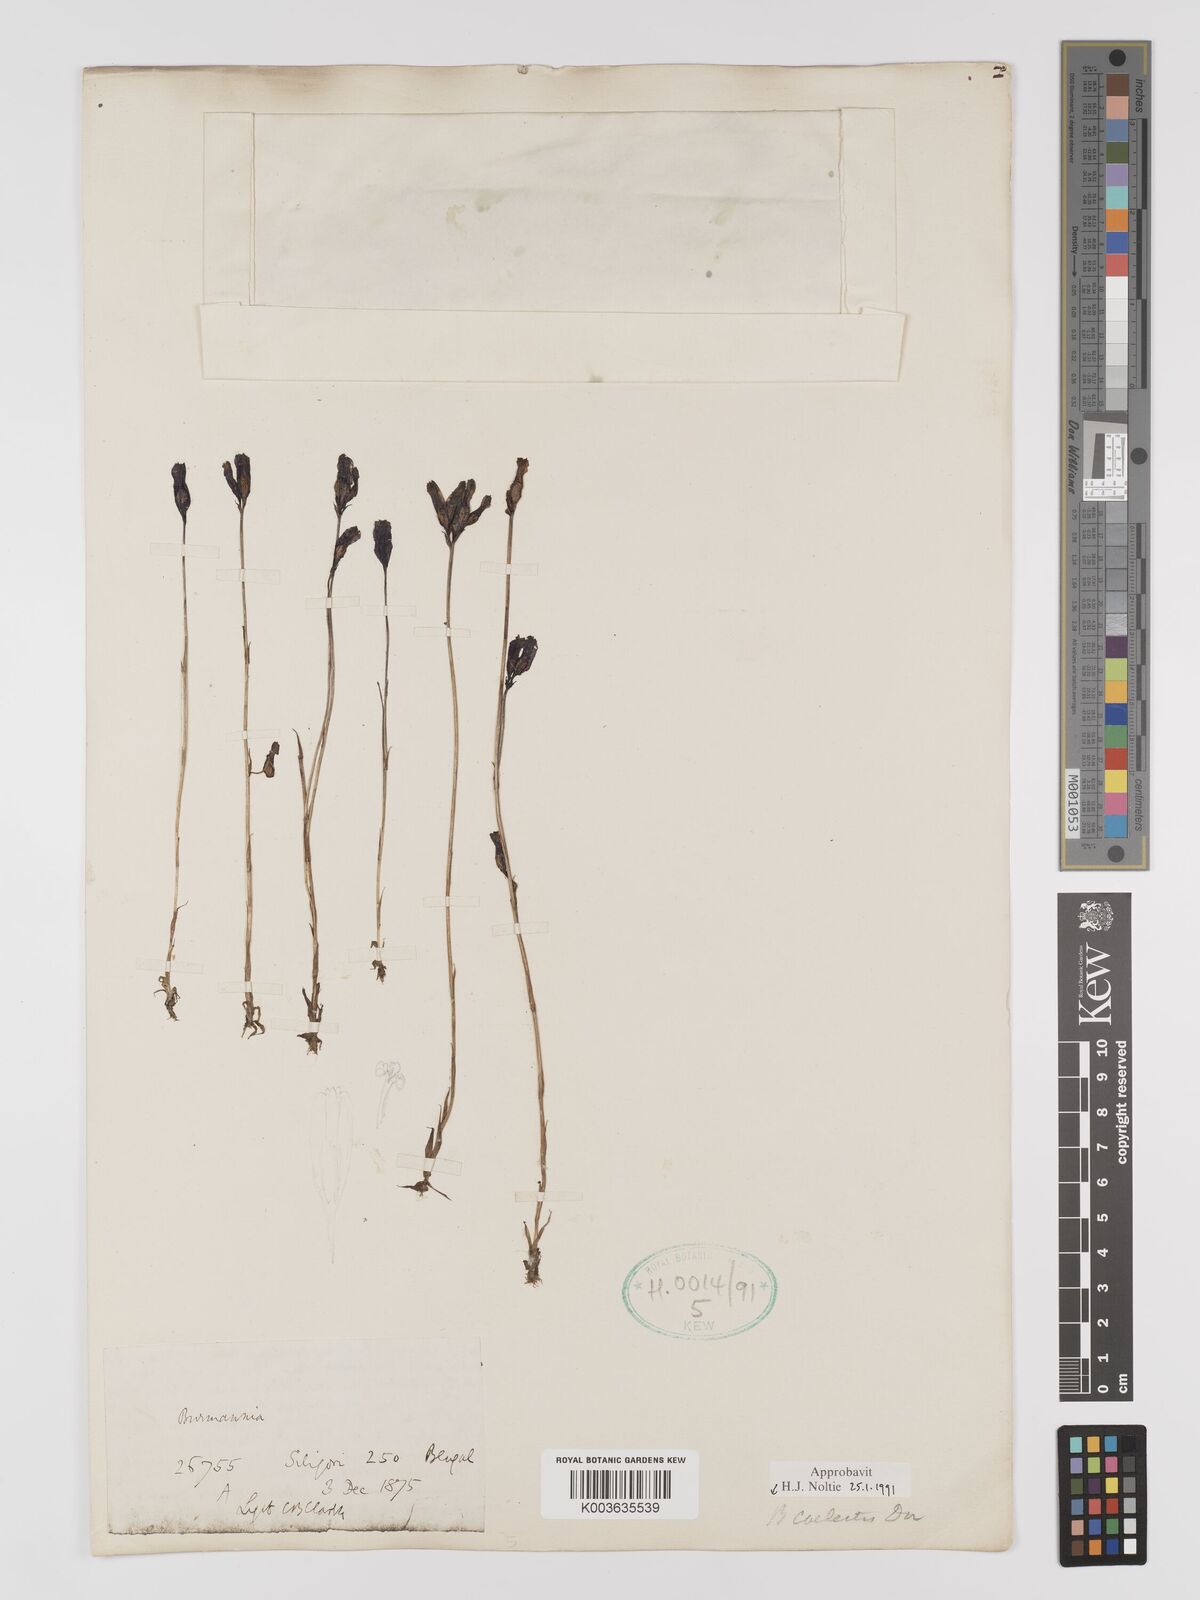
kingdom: Plantae
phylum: Tracheophyta
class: Liliopsida
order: Dioscoreales
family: Burmanniaceae
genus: Burmannia
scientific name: Burmannia coelestis
